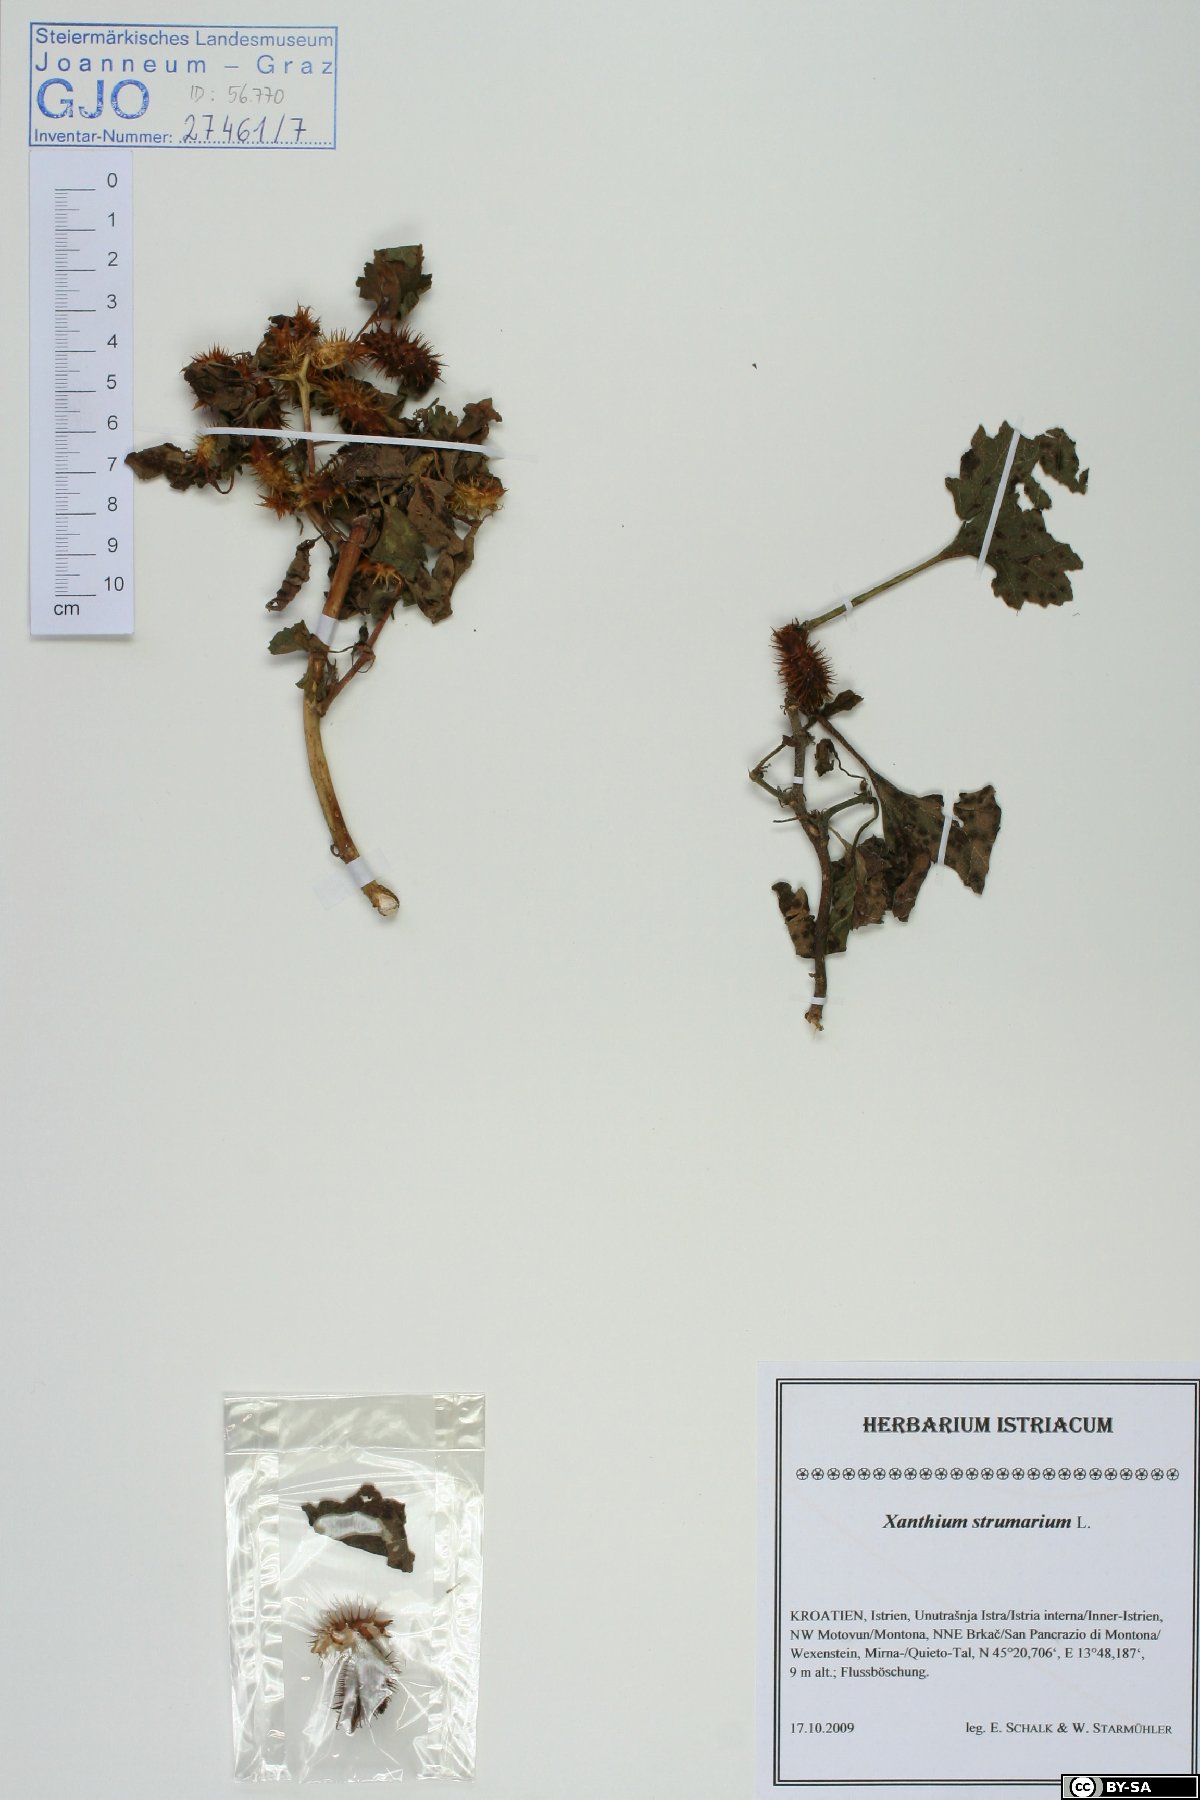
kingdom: Plantae
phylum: Tracheophyta
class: Magnoliopsida
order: Asterales
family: Asteraceae
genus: Xanthium
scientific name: Xanthium strumarium
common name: Rough cocklebur
